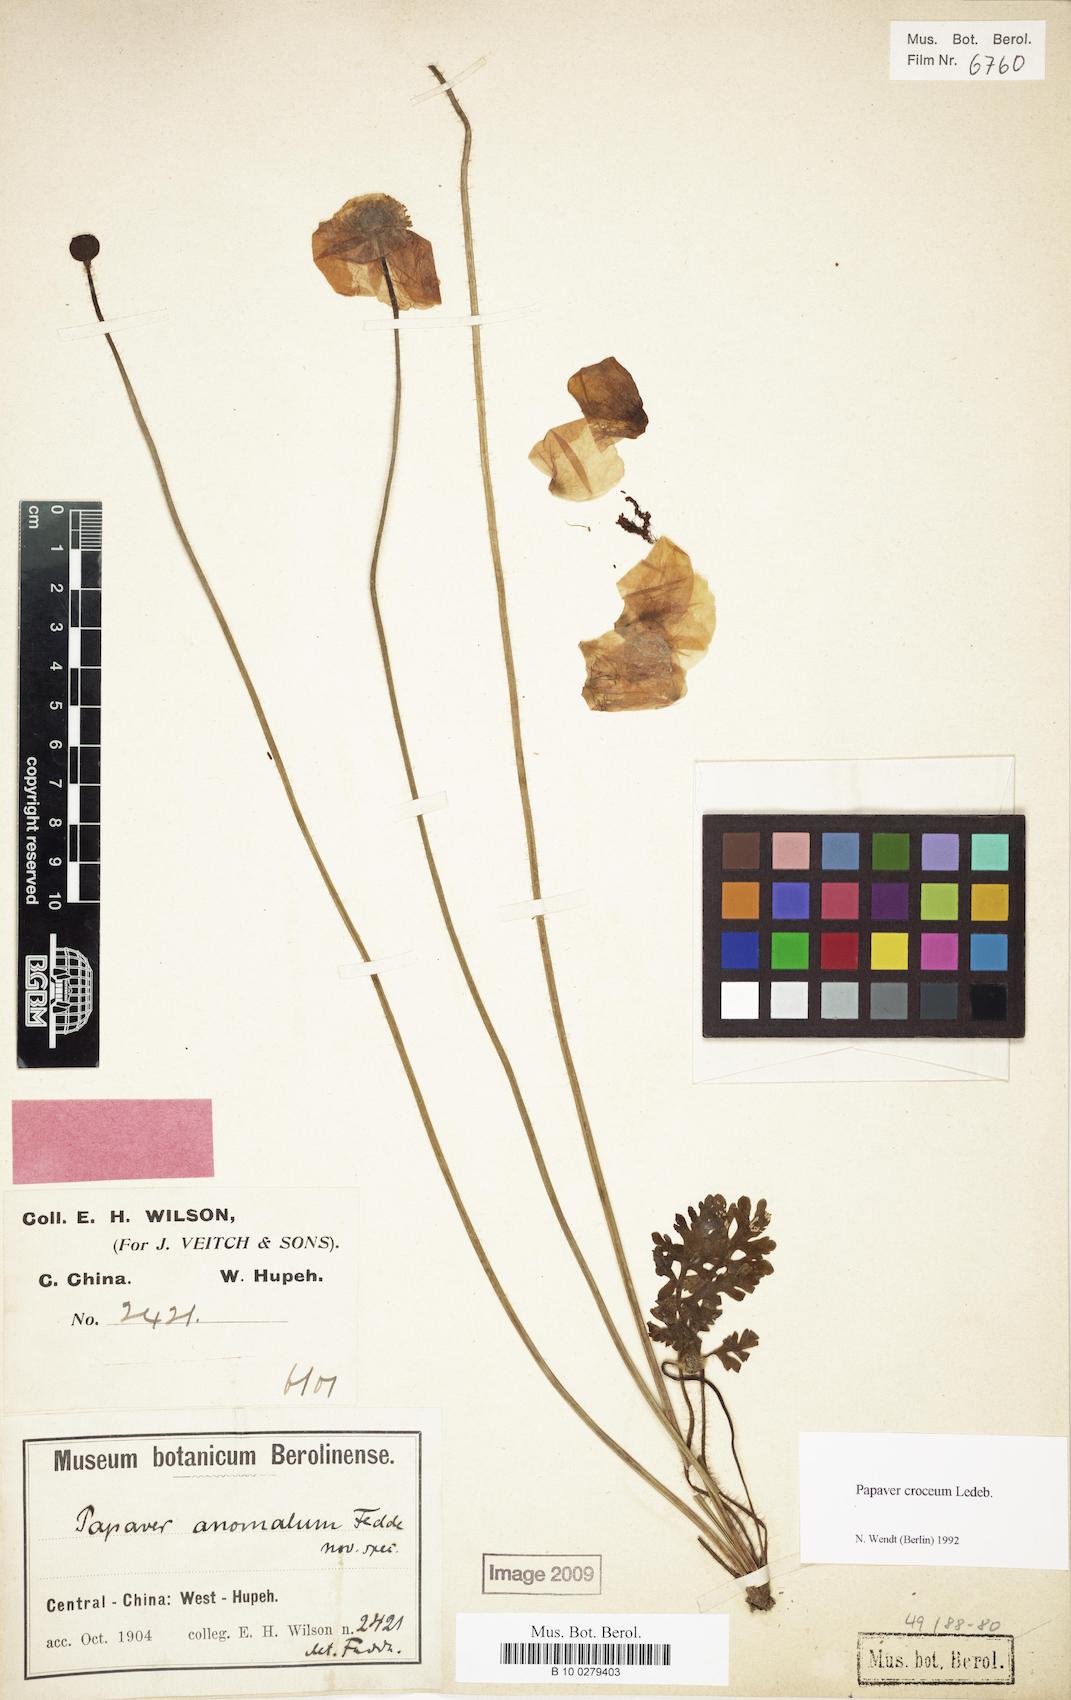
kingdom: Plantae
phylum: Tracheophyta
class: Magnoliopsida
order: Ranunculales
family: Papaveraceae
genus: Papaver
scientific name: Papaver croceum
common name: Siberian poppy
